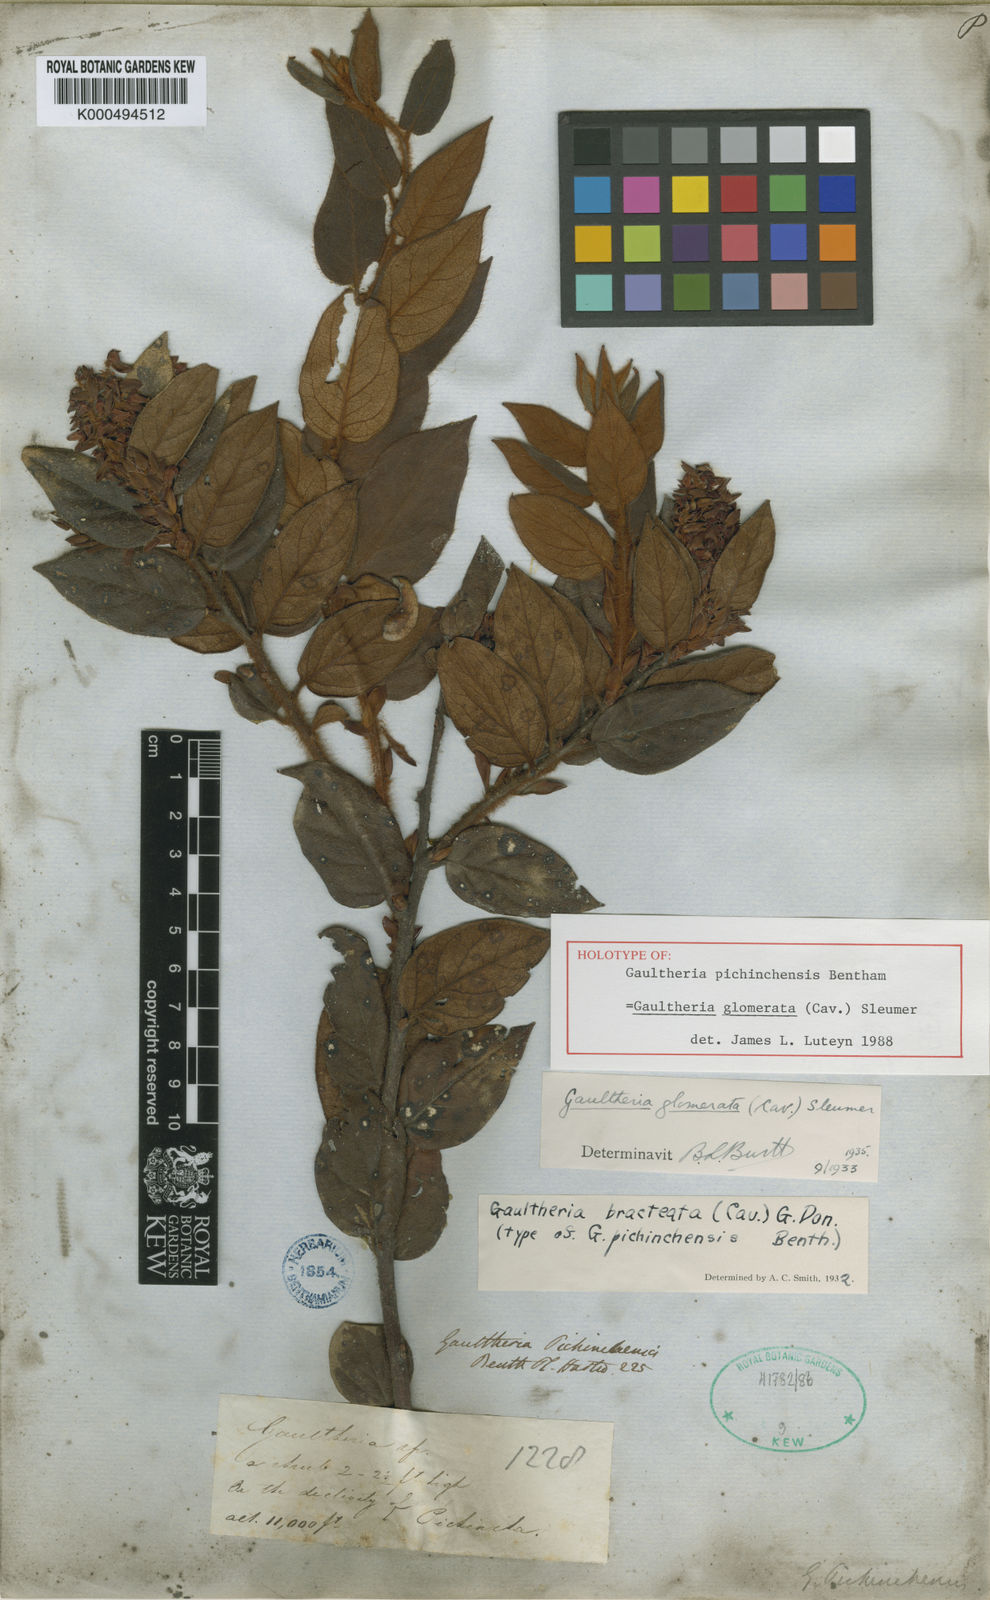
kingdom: Plantae
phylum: Tracheophyta
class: Magnoliopsida
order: Ericales
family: Ericaceae
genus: Gaultheria
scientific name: Gaultheria glomerata
